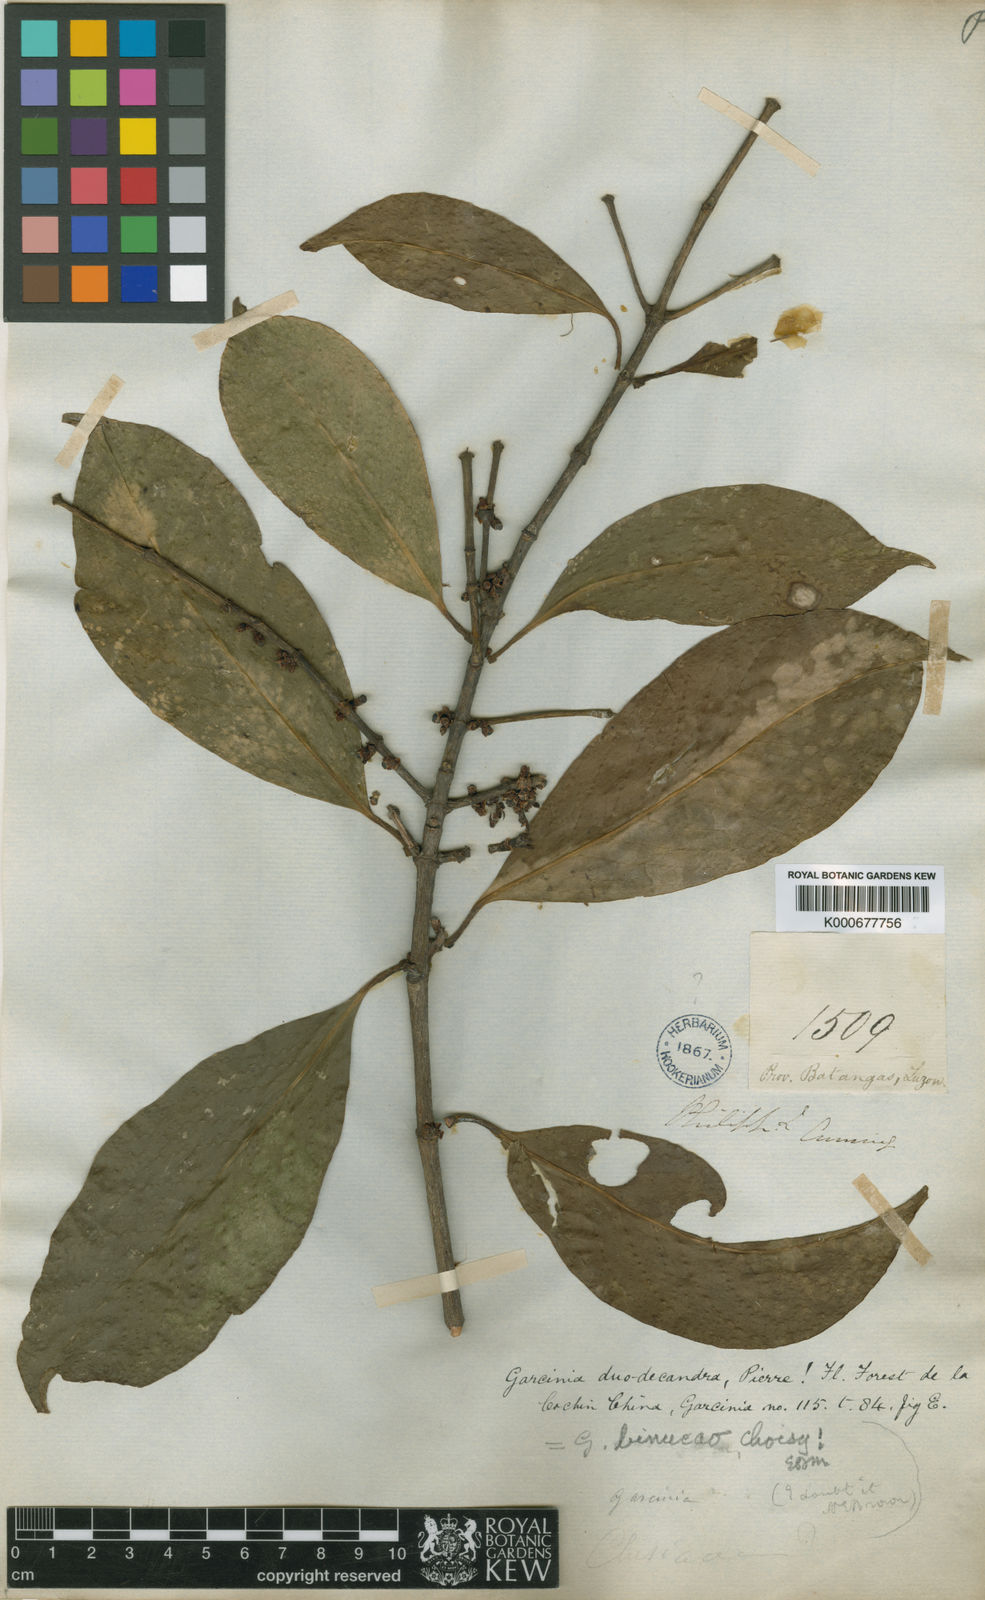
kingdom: Plantae
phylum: Tracheophyta
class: Magnoliopsida
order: Malpighiales
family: Clusiaceae
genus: Garcinia
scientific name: Garcinia binucao
